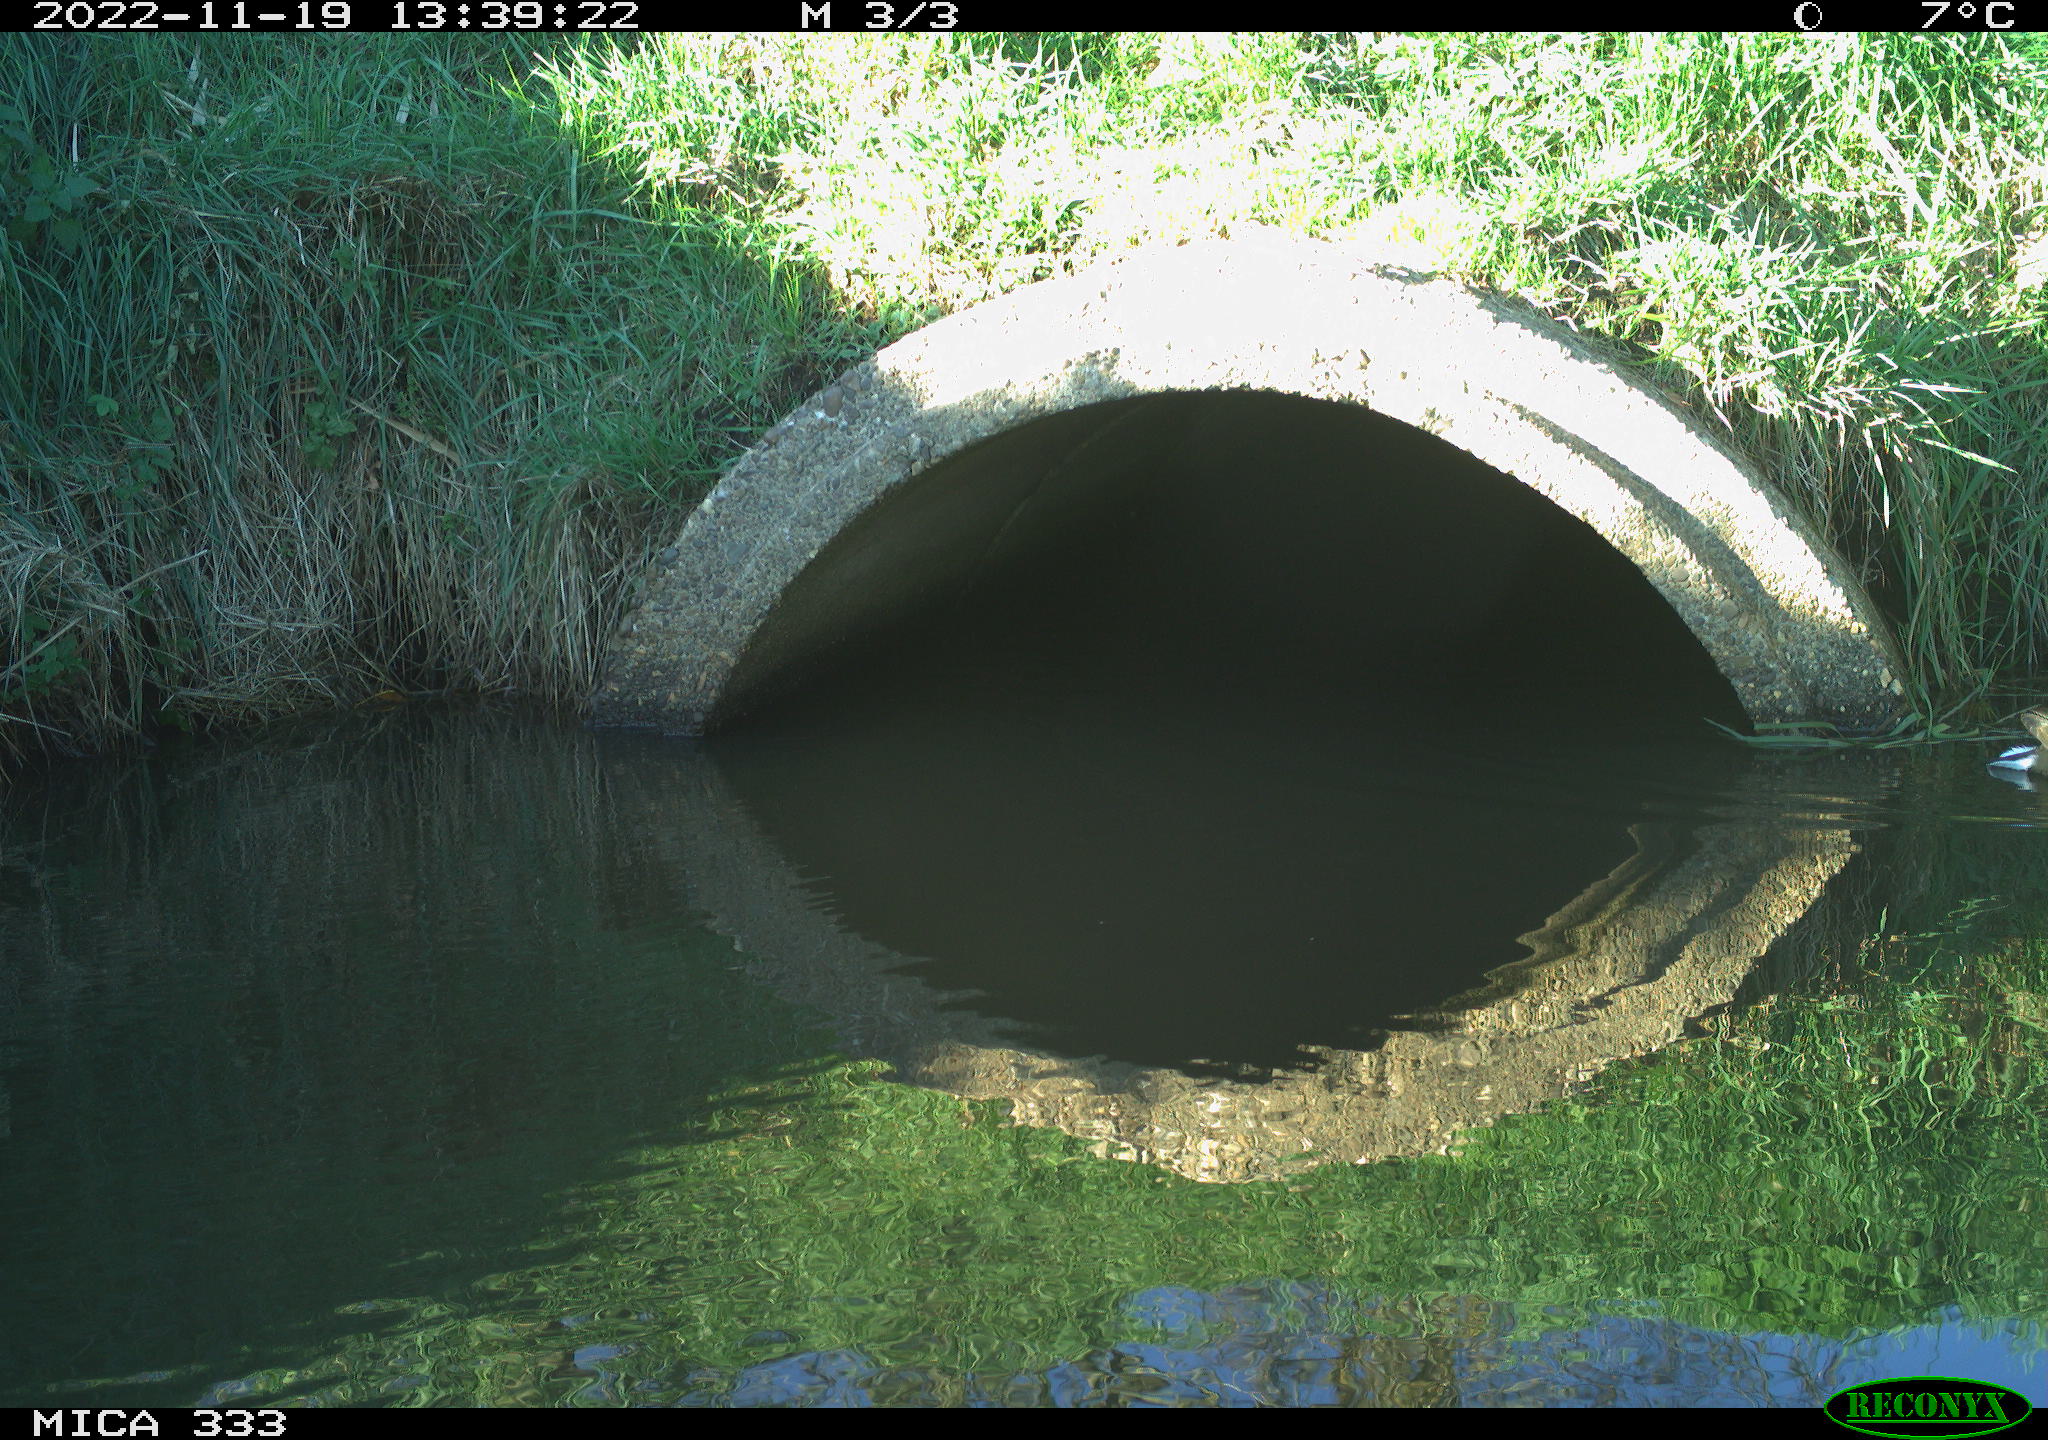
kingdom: Animalia
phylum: Chordata
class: Aves
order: Gruiformes
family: Rallidae
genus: Gallinula
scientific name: Gallinula chloropus
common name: Common moorhen
